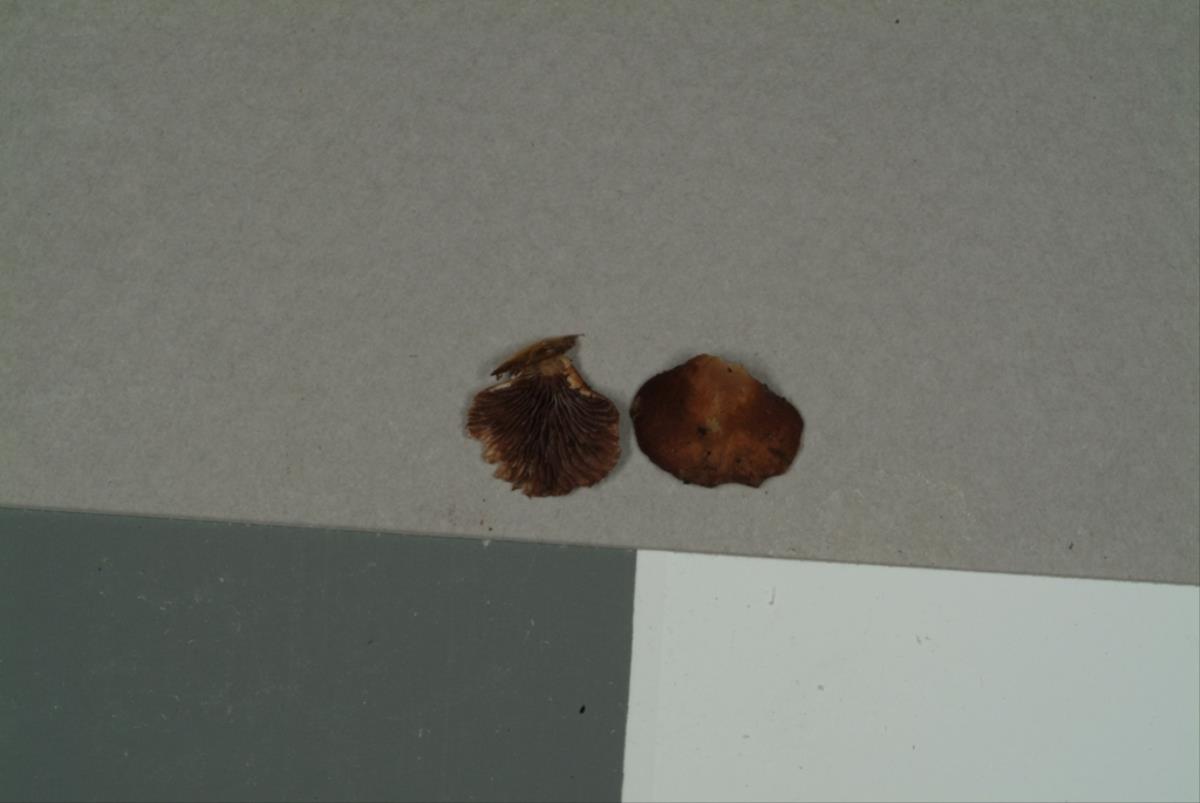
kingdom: Fungi
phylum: Basidiomycota
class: Agaricomycetes
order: Agaricales
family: Strophariaceae
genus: Melanotus
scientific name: Melanotus communis
